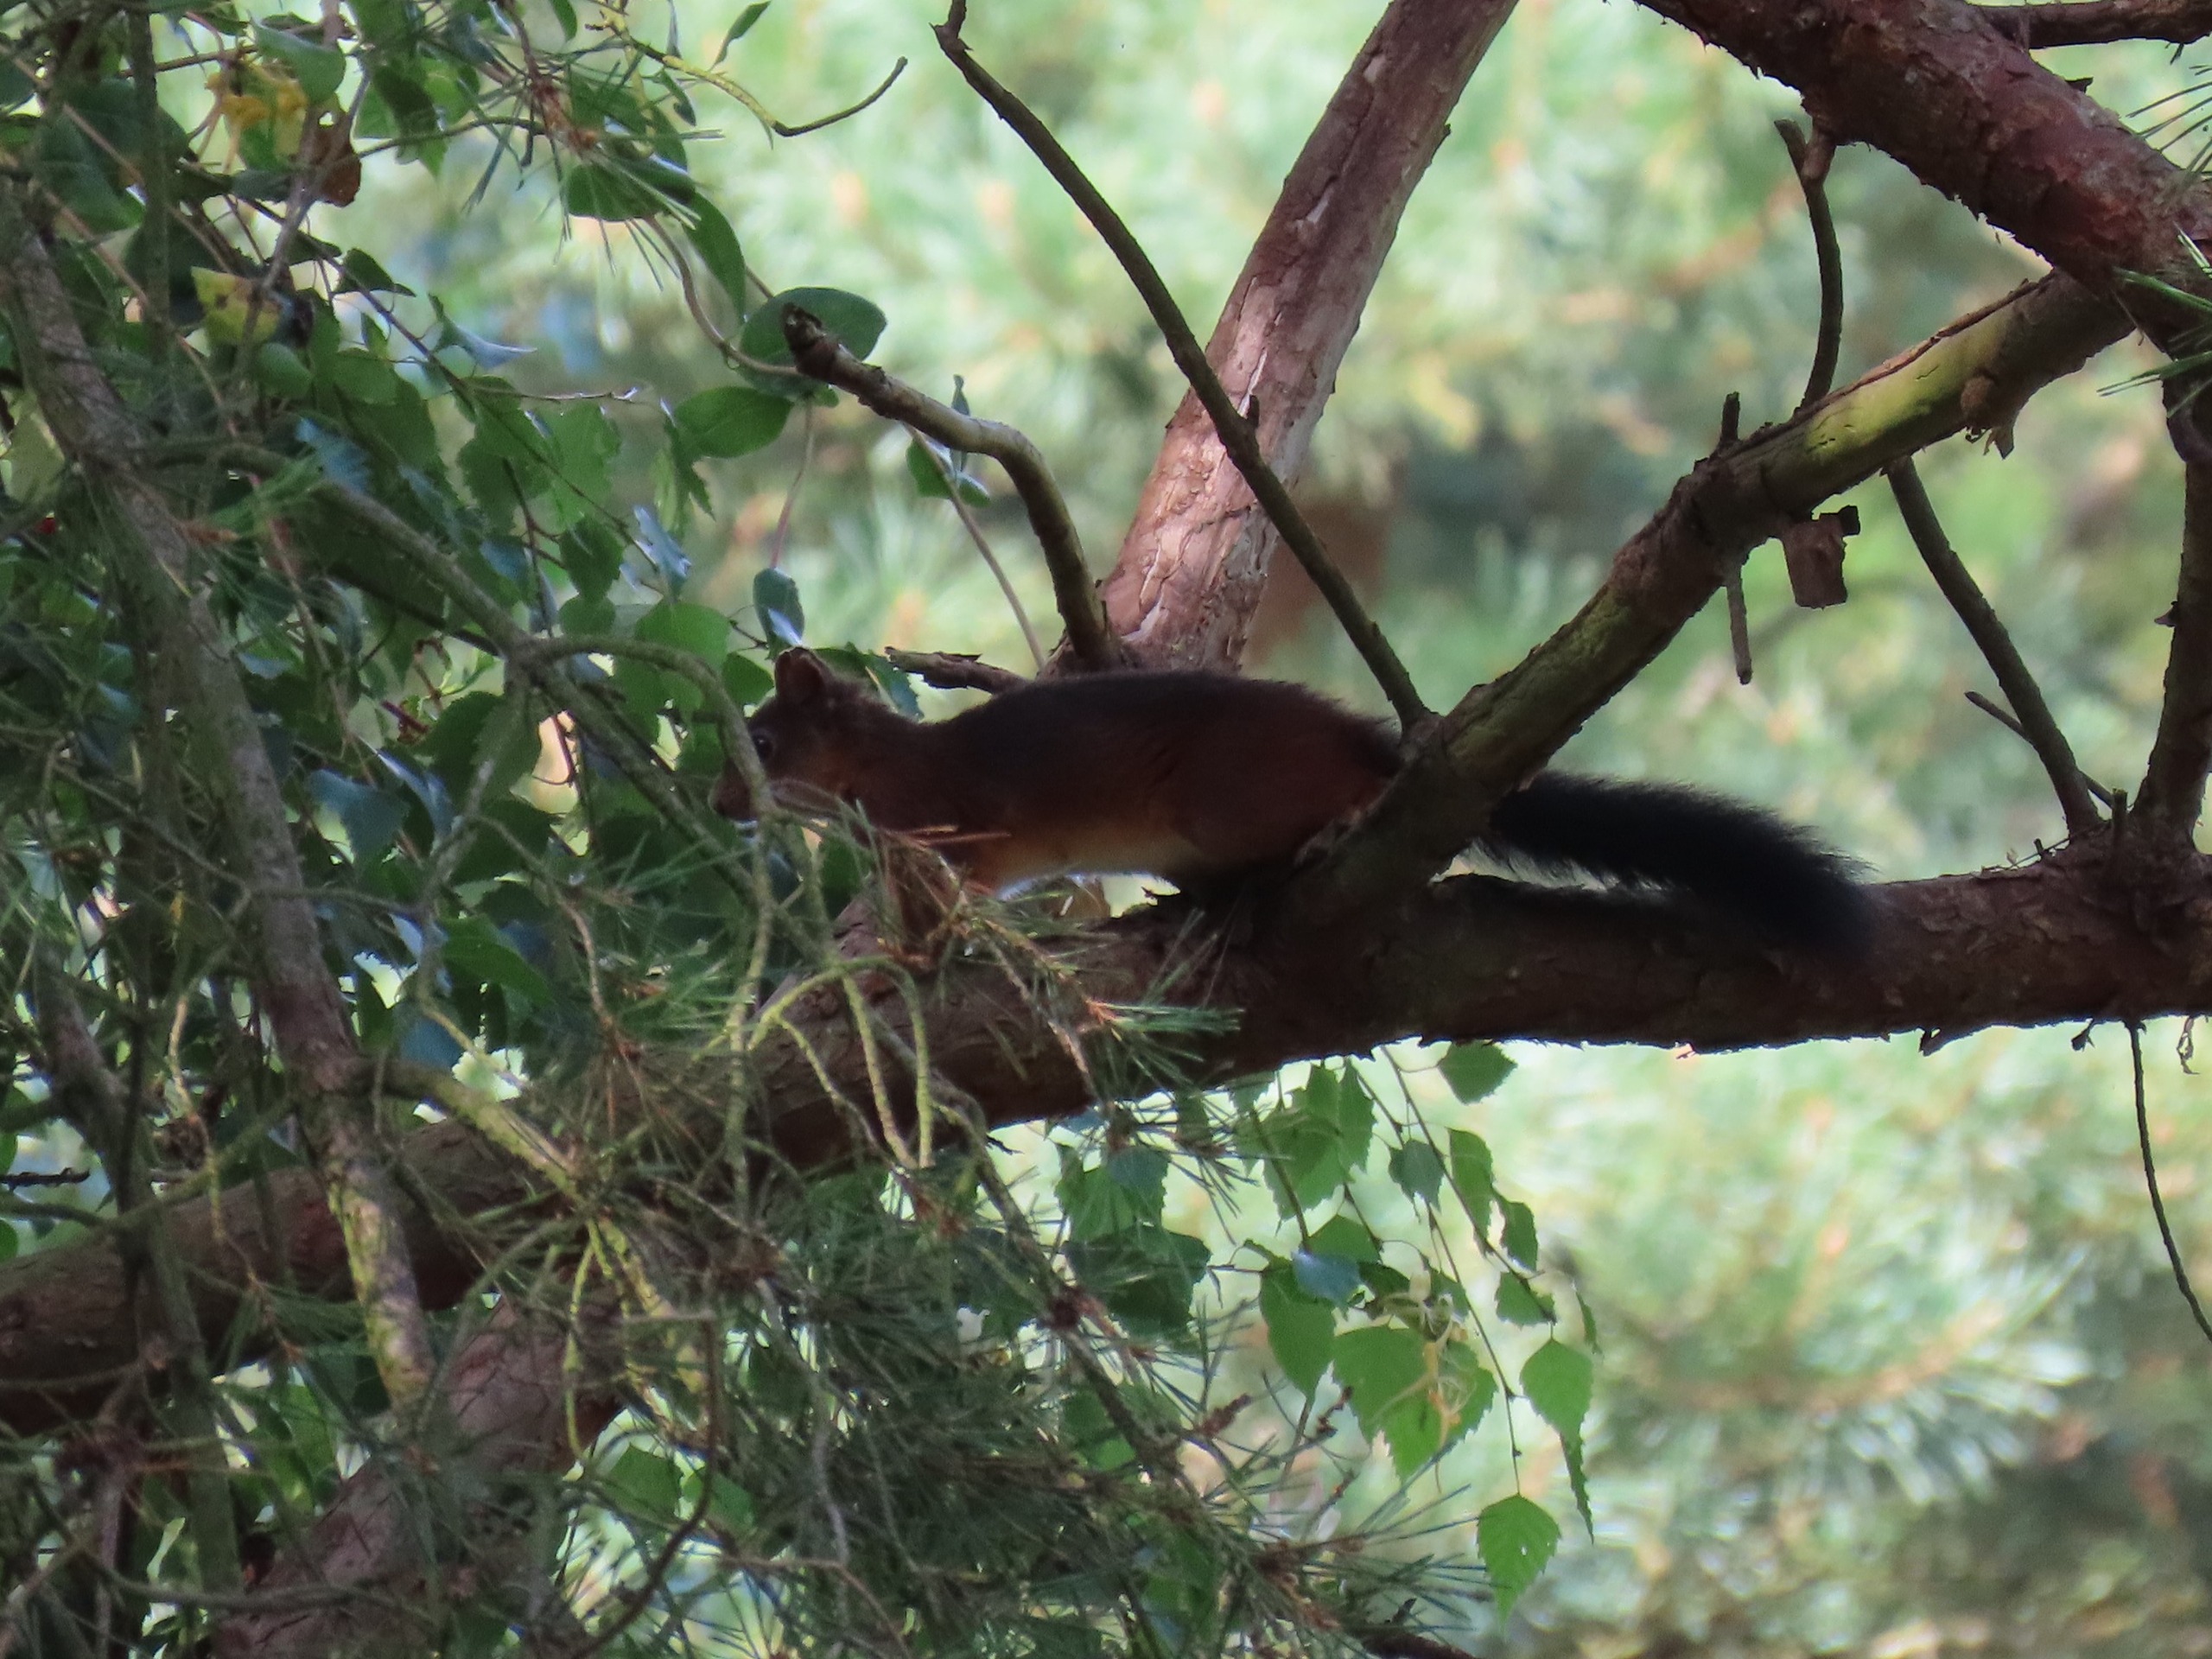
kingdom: Animalia
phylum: Chordata
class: Mammalia
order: Rodentia
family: Sciuridae
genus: Sciurus
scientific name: Sciurus vulgaris
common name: Egern
